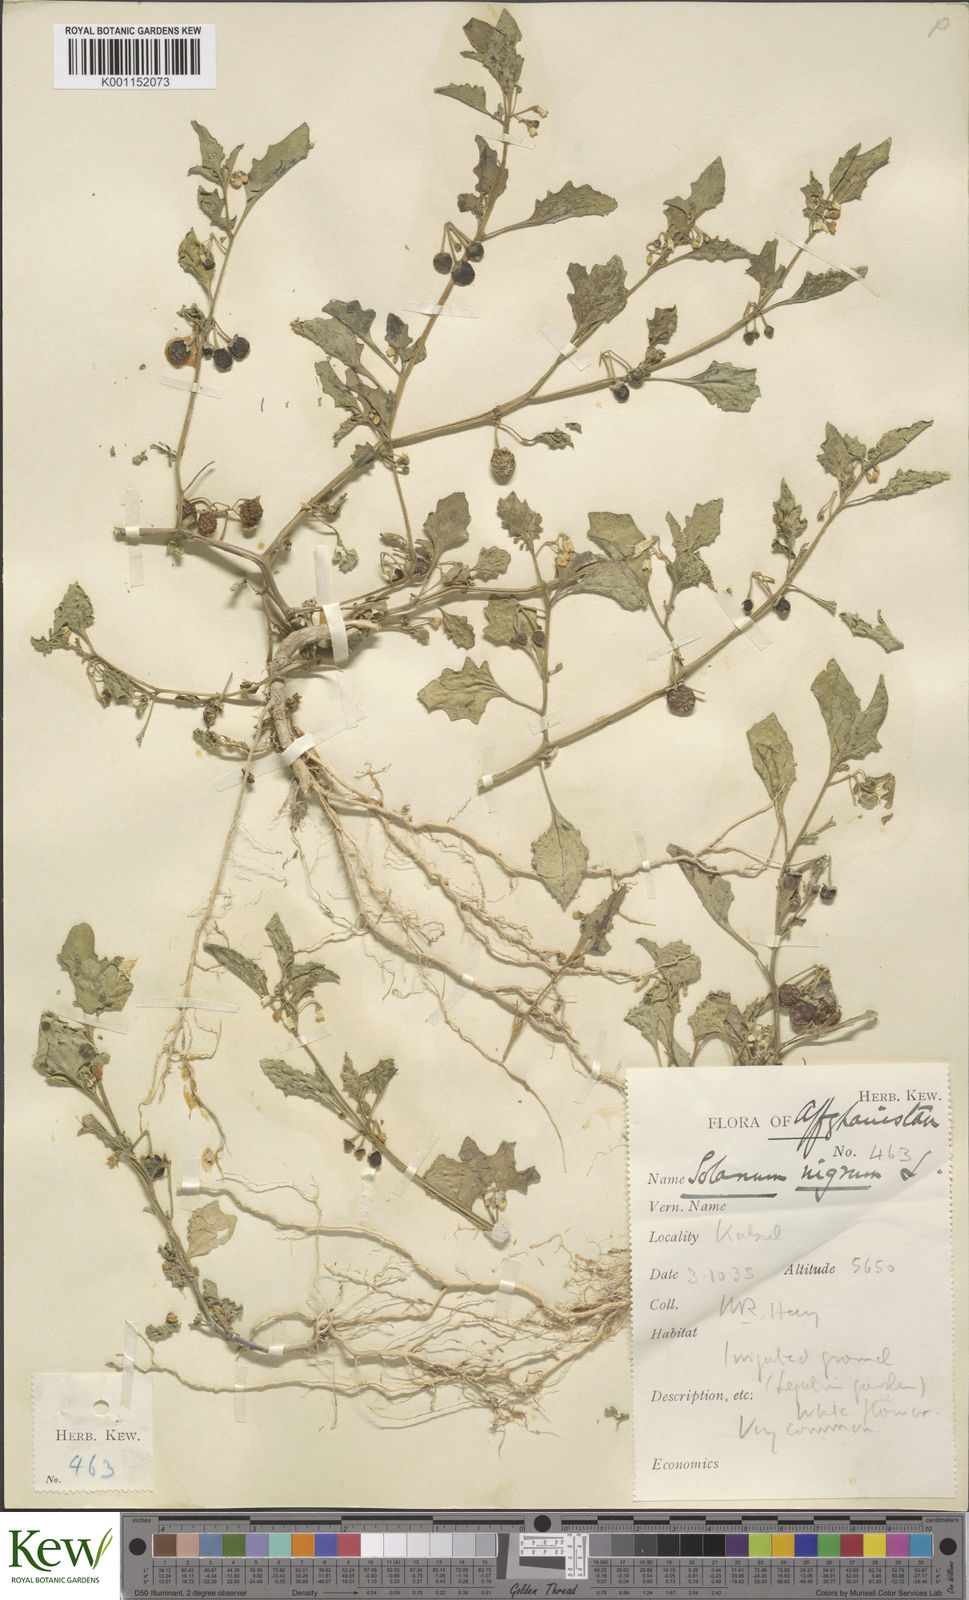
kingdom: Plantae
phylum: Tracheophyta
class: Magnoliopsida
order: Solanales
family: Solanaceae
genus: Solanum
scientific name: Solanum villosum
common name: Red nightshade
